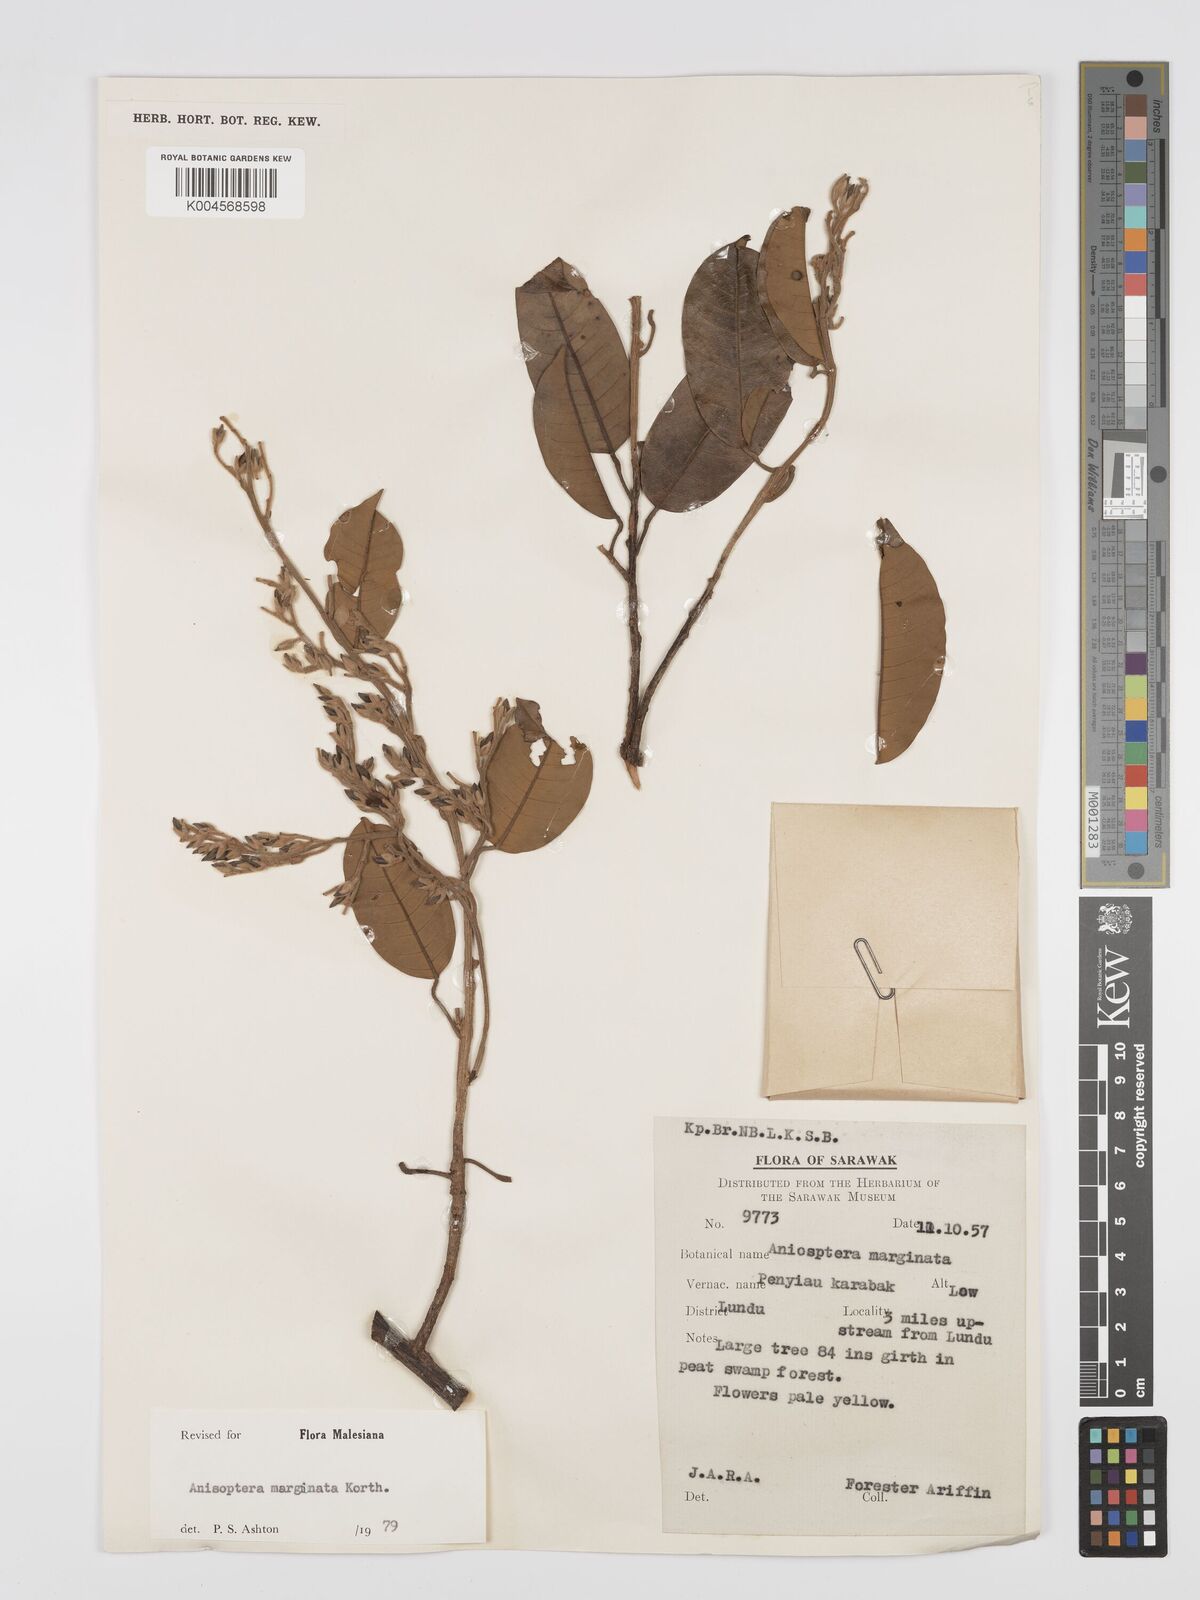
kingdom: Plantae
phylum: Tracheophyta
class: Magnoliopsida
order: Malvales
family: Dipterocarpaceae
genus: Anisoptera
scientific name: Anisoptera marginata
